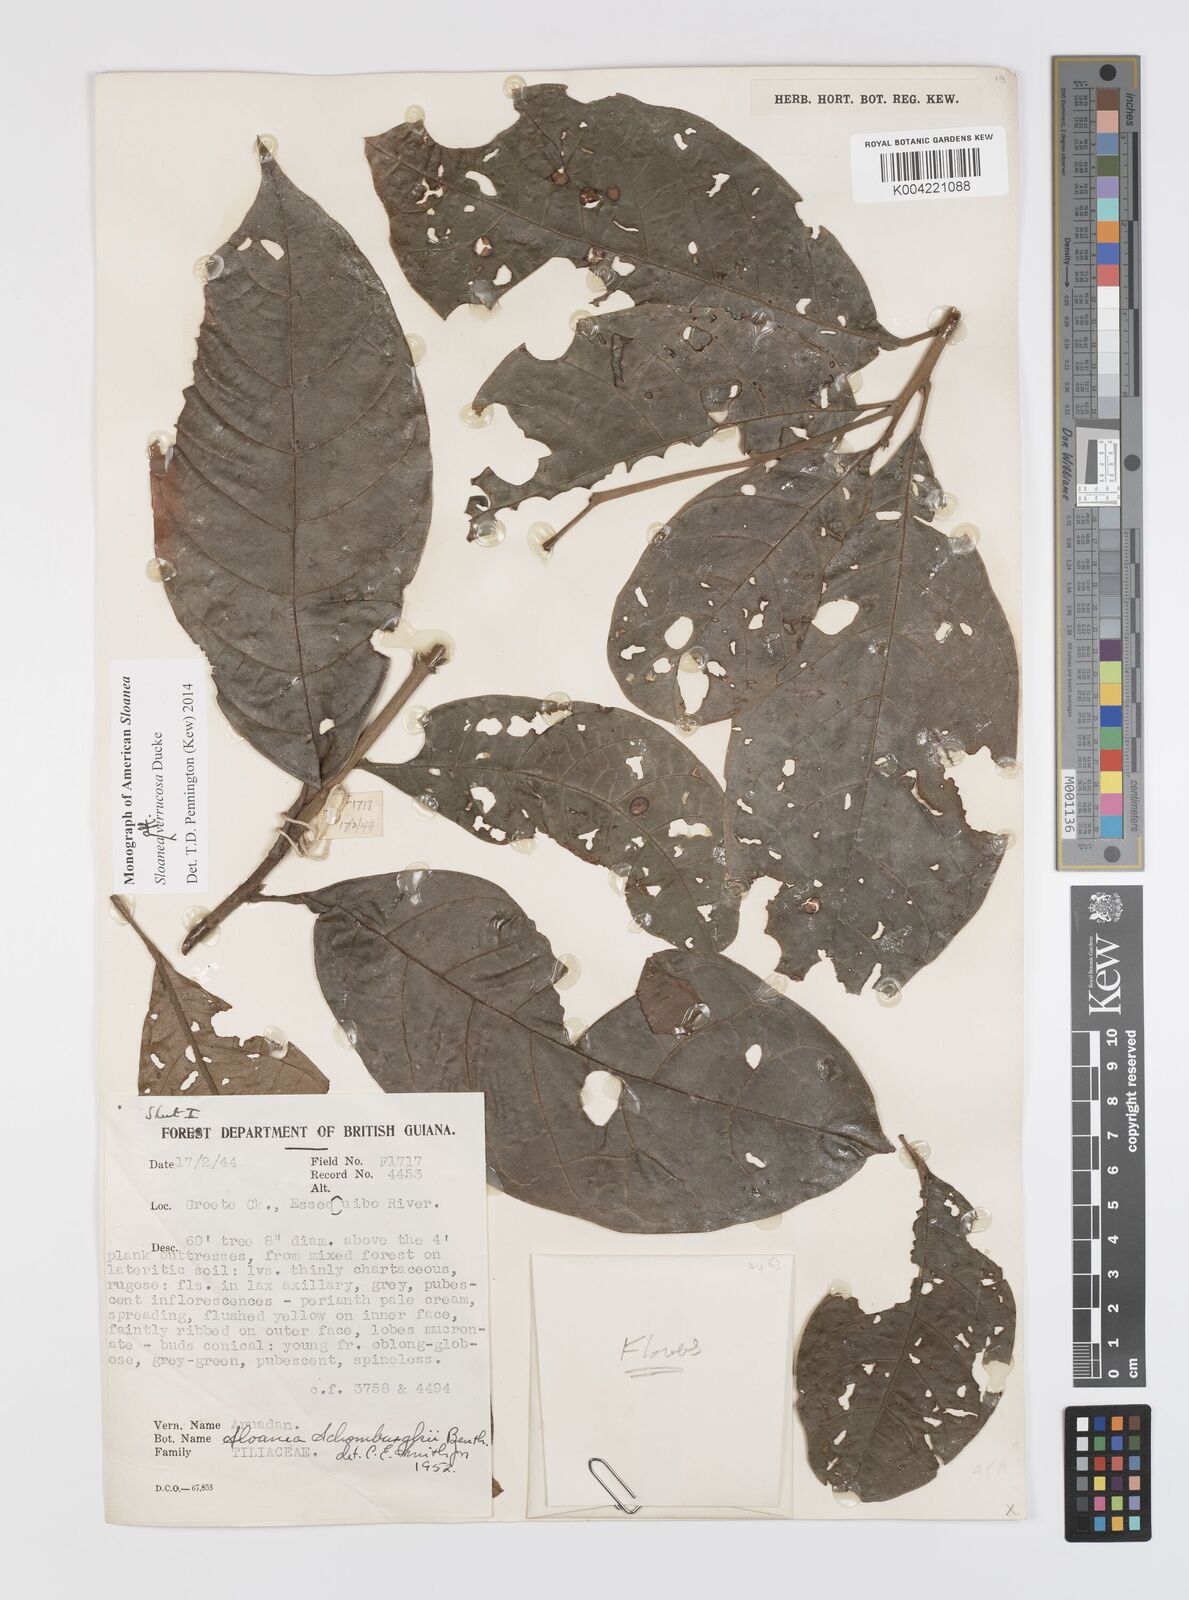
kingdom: Plantae
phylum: Tracheophyta
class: Magnoliopsida
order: Oxalidales
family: Elaeocarpaceae
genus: Sloanea
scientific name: Sloanea schomburgkii
